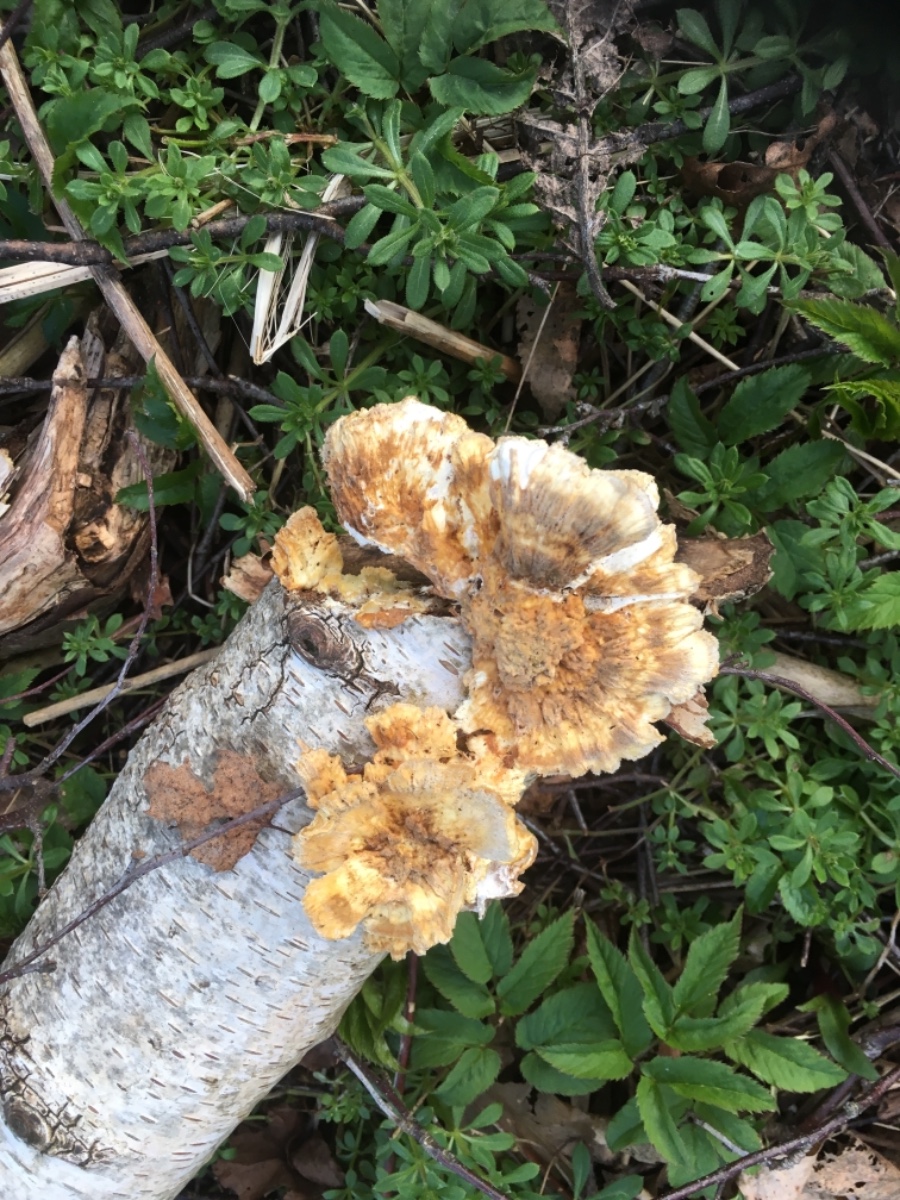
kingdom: Fungi
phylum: Basidiomycota
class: Agaricomycetes
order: Polyporales
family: Polyporaceae
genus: Trametes
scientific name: Trametes
